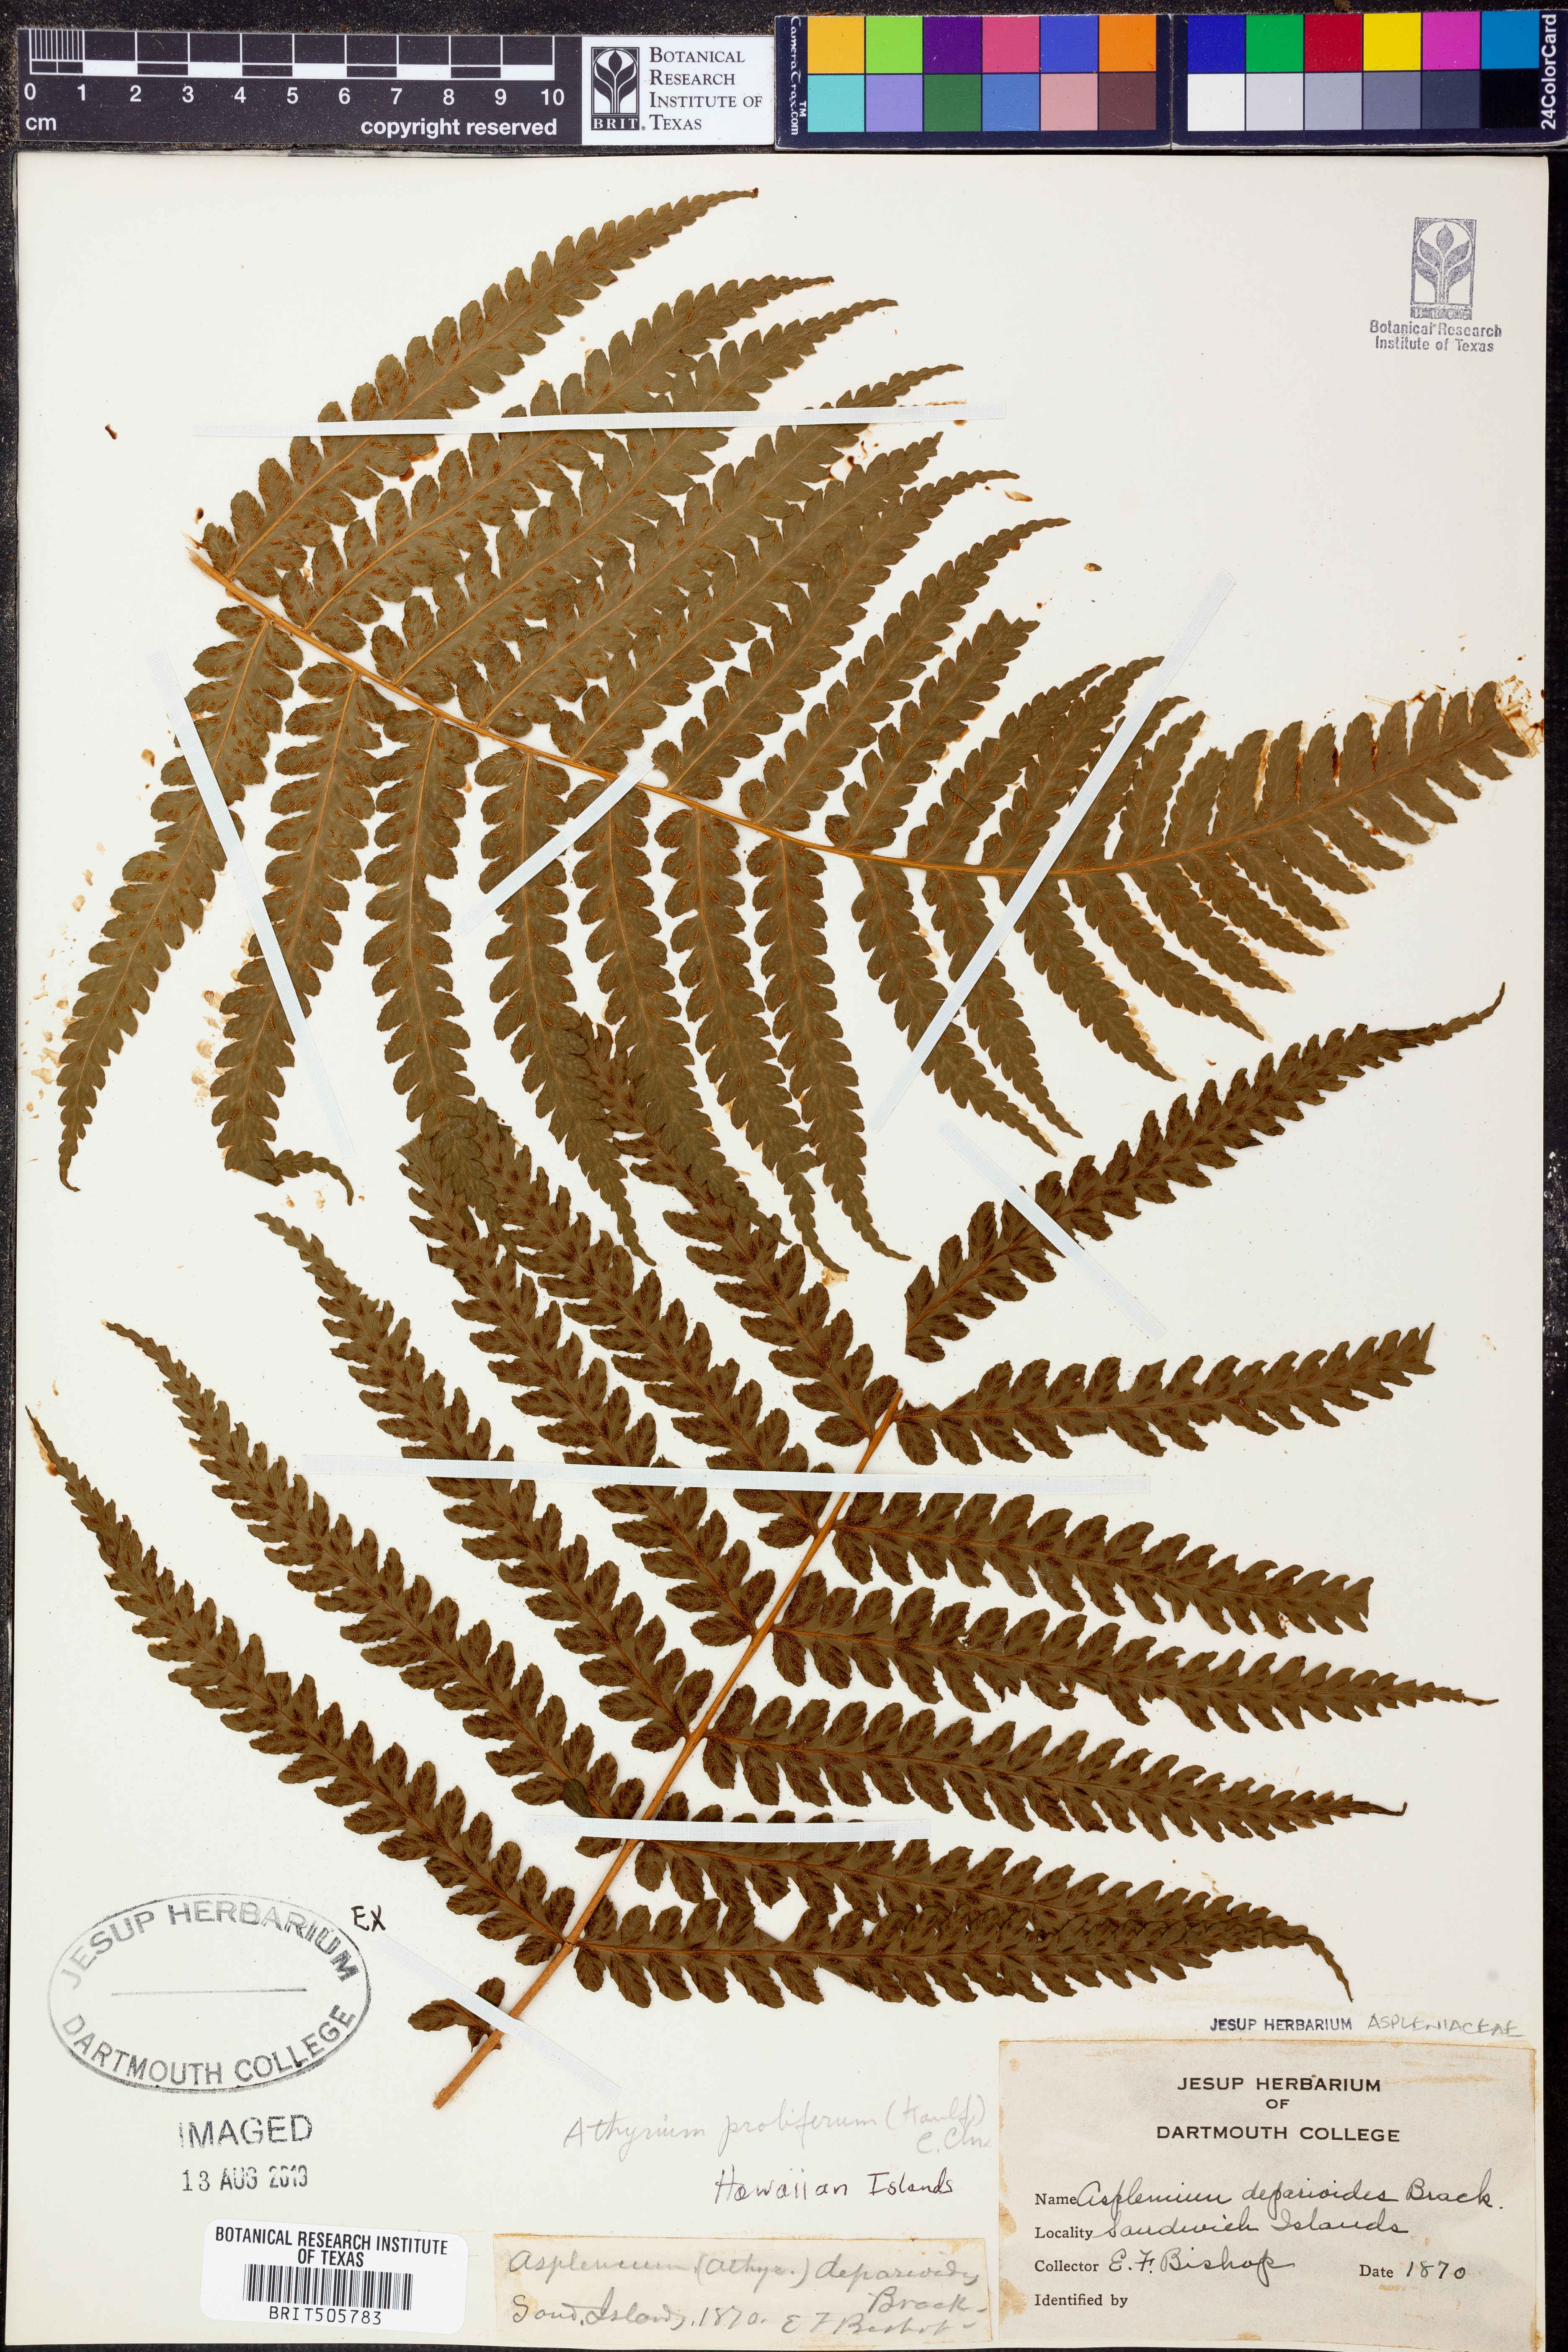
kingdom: Plantae
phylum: Tracheophyta
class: Polypodiopsida
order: Polypodiales
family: Athyriaceae
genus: Deparia
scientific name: Deparia prolifera
